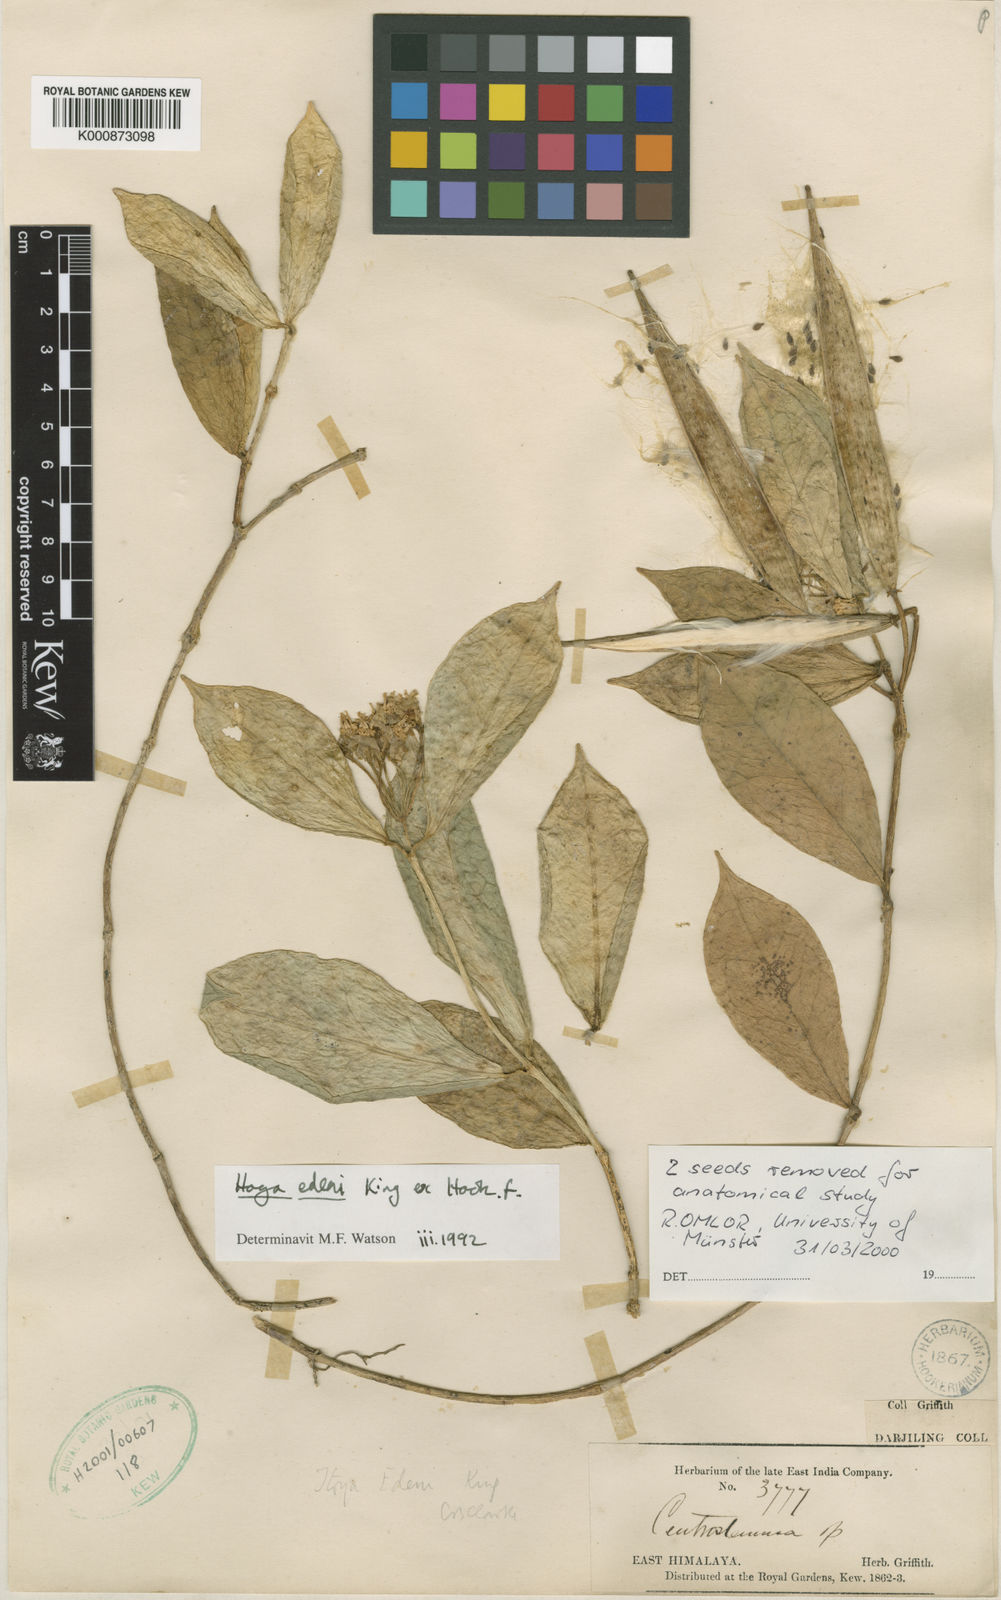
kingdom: Plantae
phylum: Tracheophyta
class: Magnoliopsida
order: Gentianales
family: Apocynaceae
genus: Hoya
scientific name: Hoya
